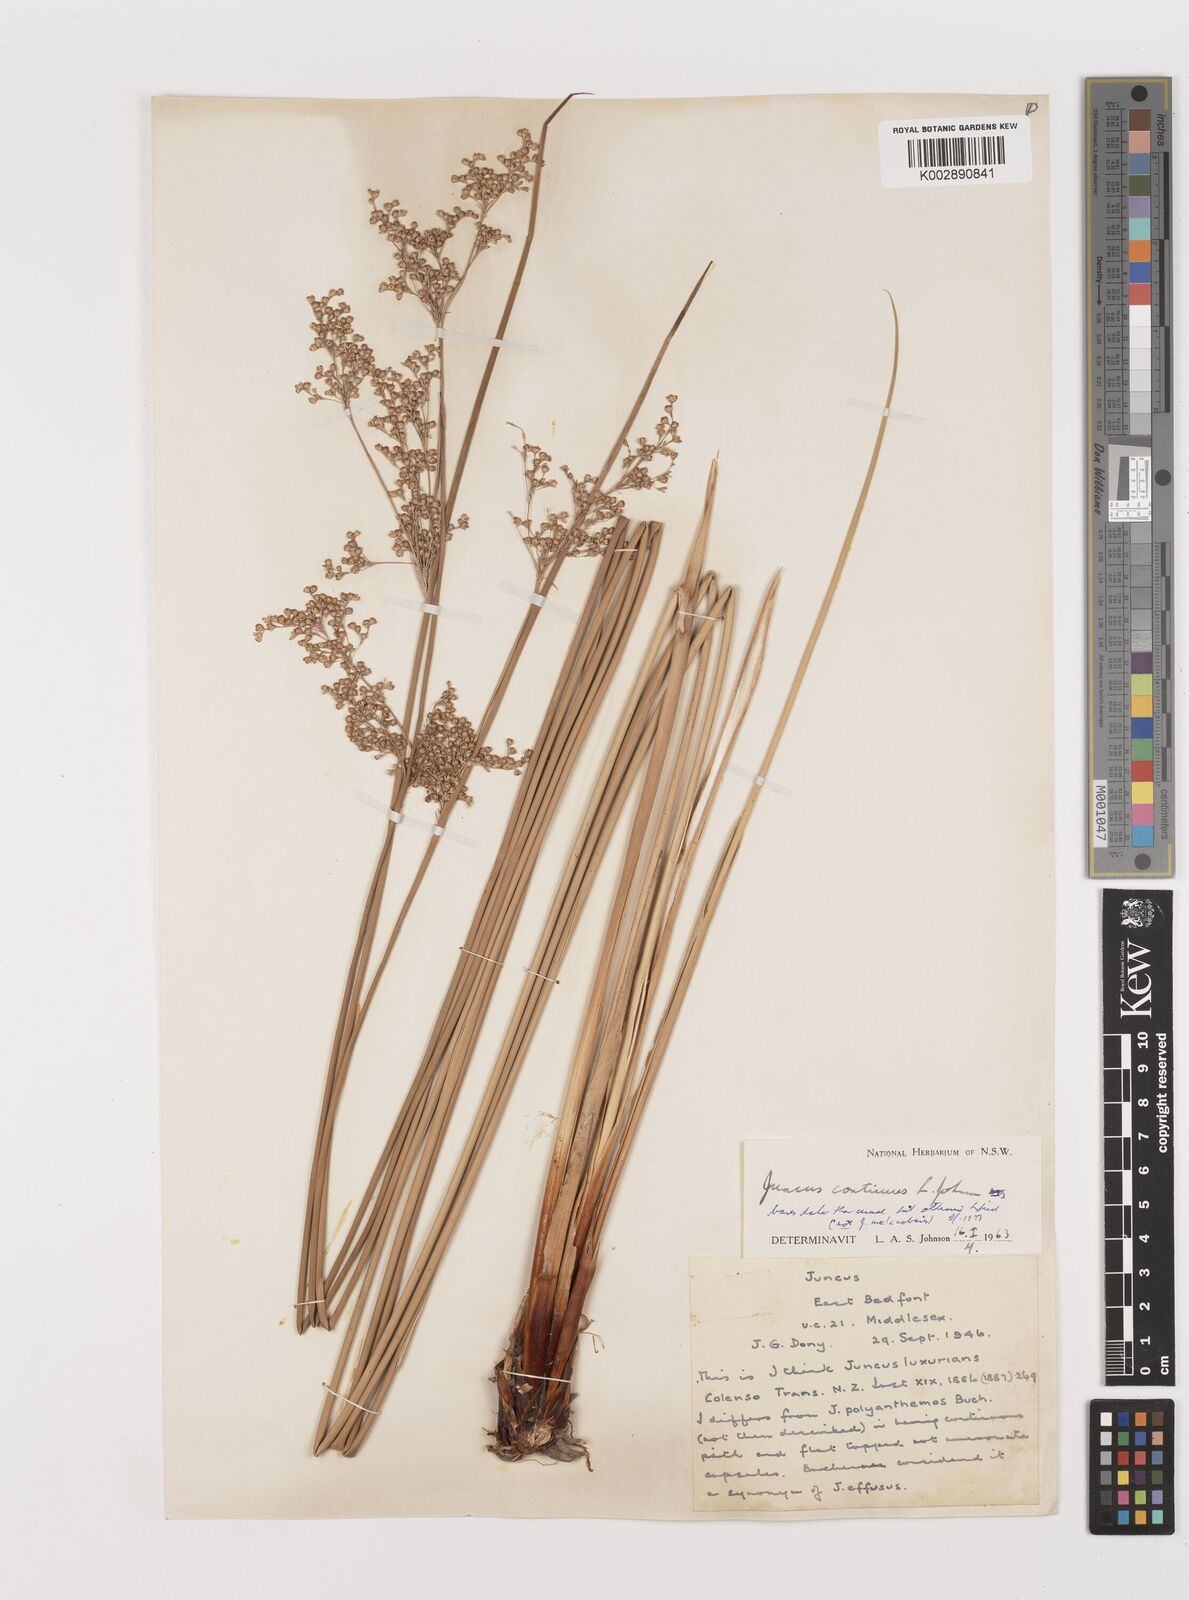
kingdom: Plantae
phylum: Tracheophyta
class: Liliopsida
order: Poales
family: Juncaceae
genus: Juncus
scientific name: Juncus continuus
